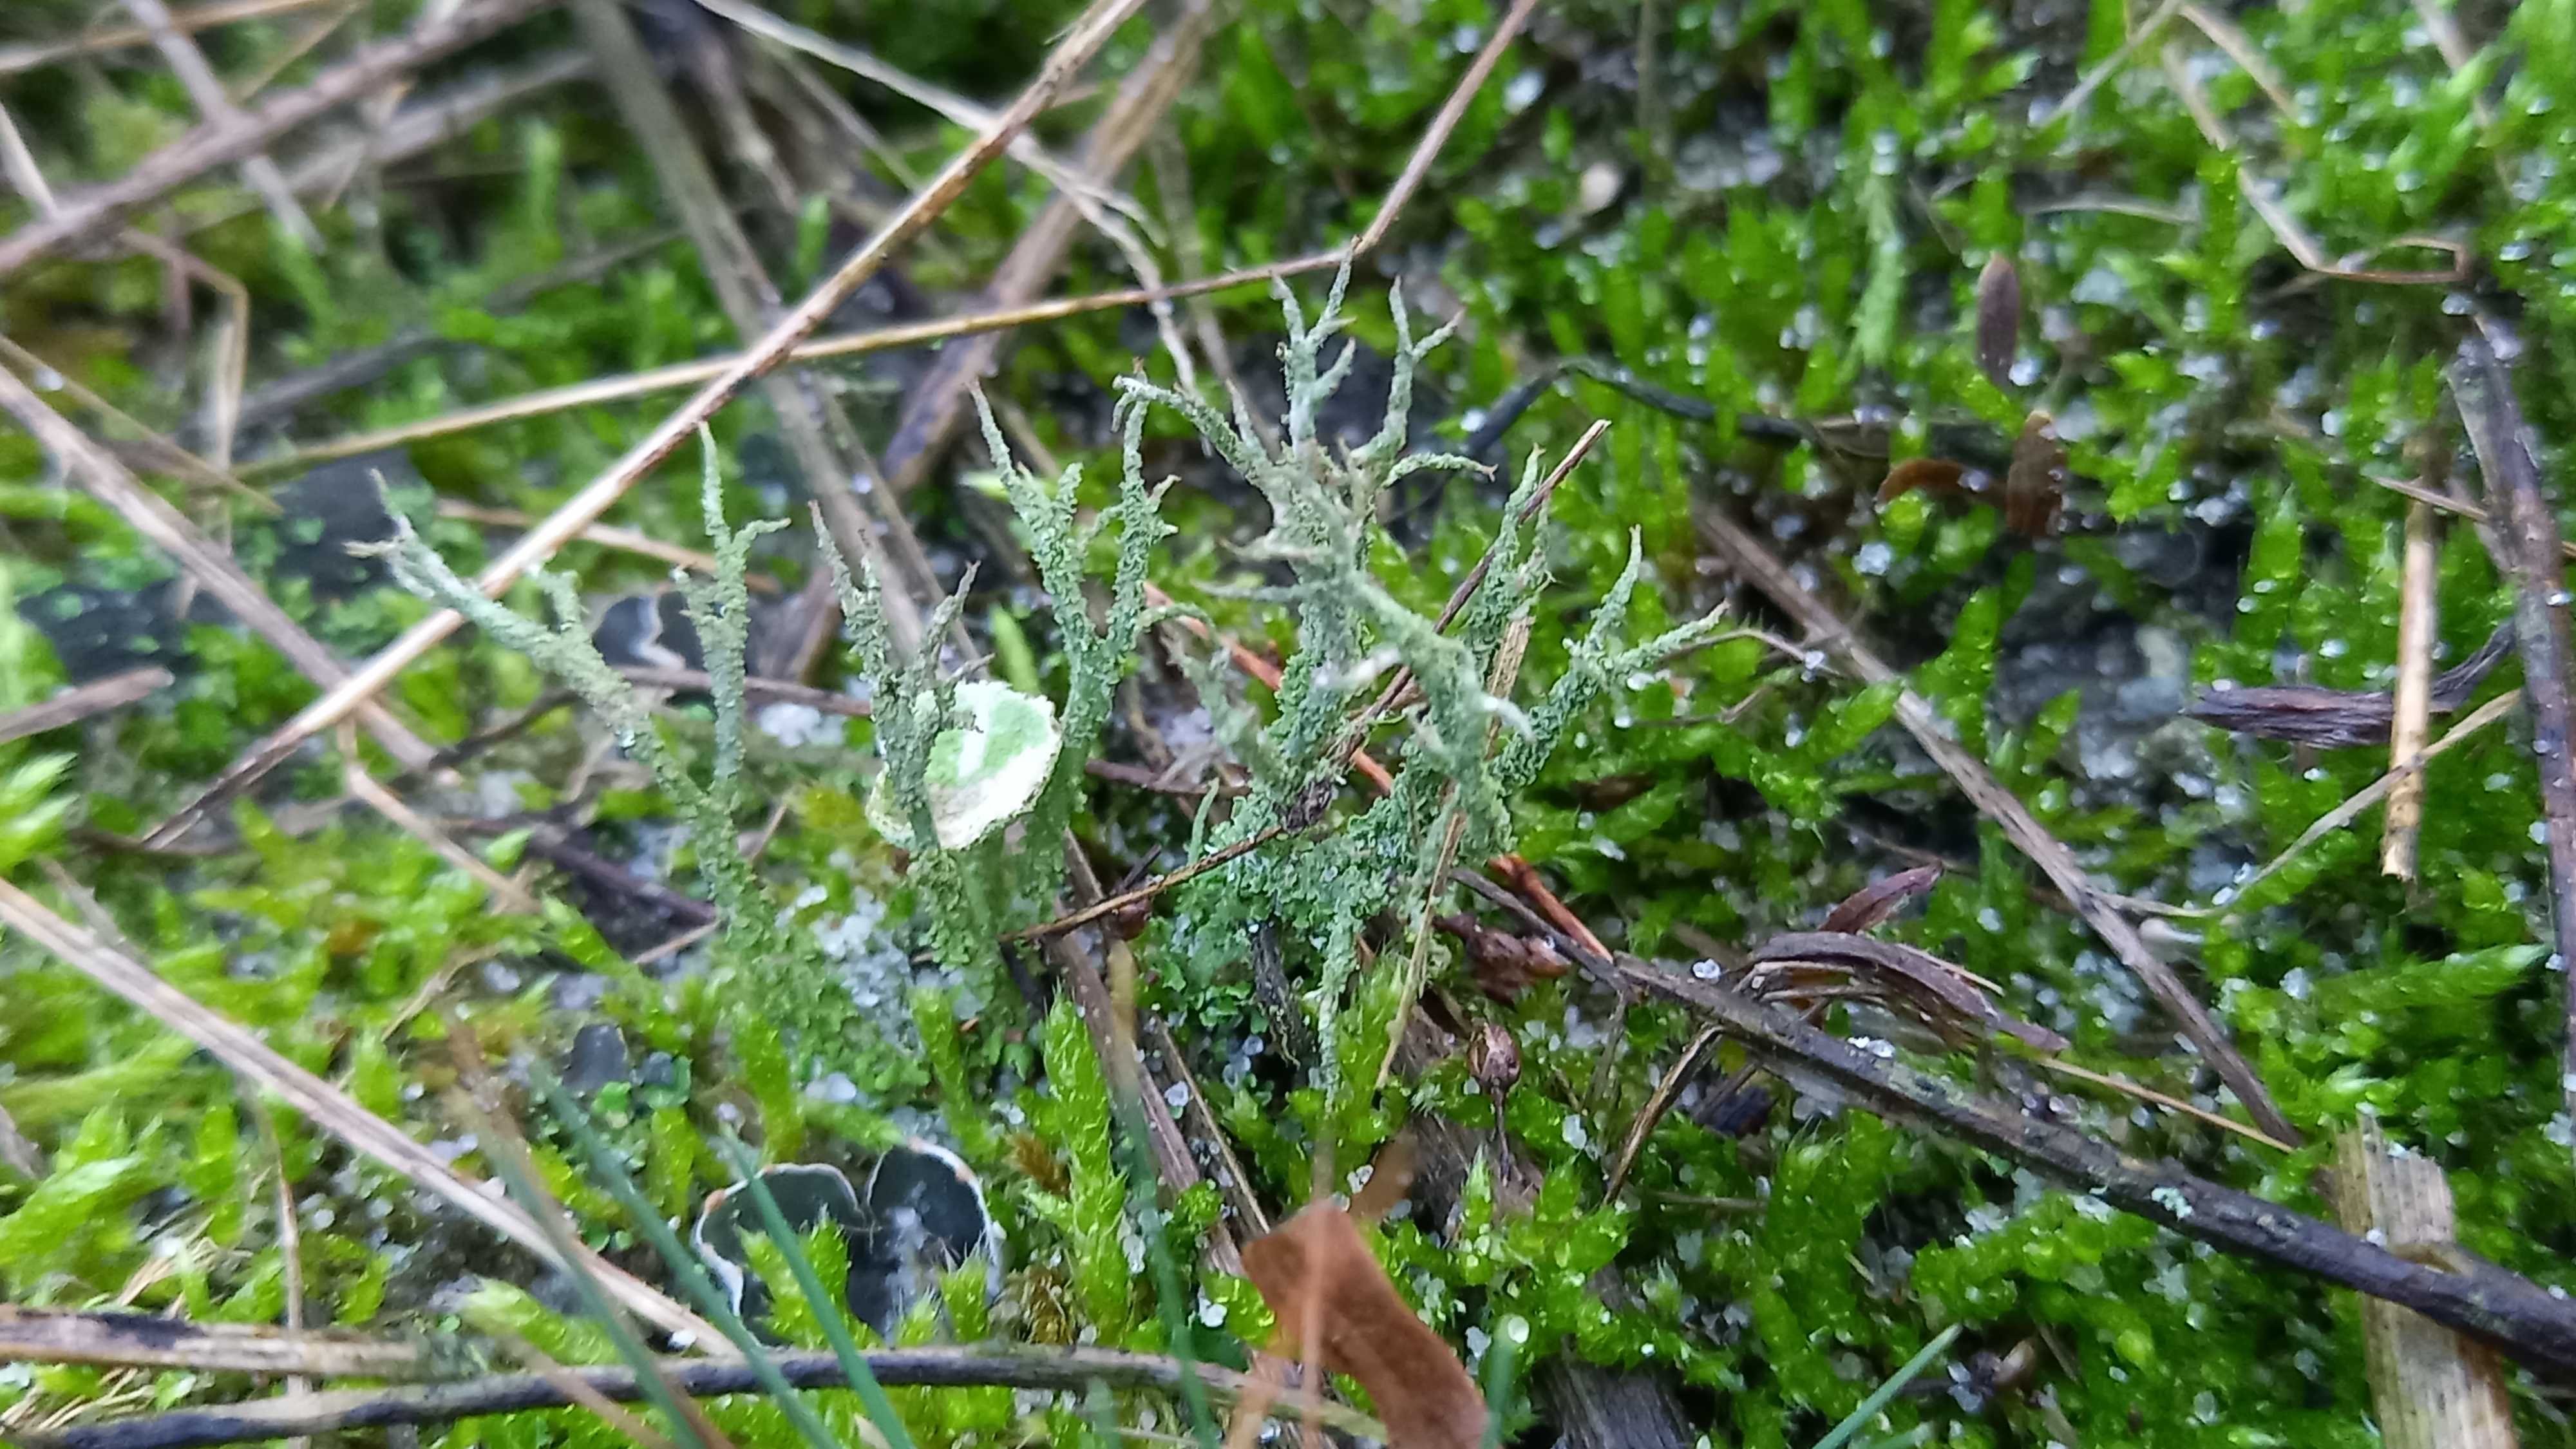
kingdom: Fungi
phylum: Ascomycota
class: Lecanoromycetes
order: Lecanorales
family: Cladoniaceae
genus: Cladonia
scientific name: Cladonia scabriuscula
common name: ru bægerlav
